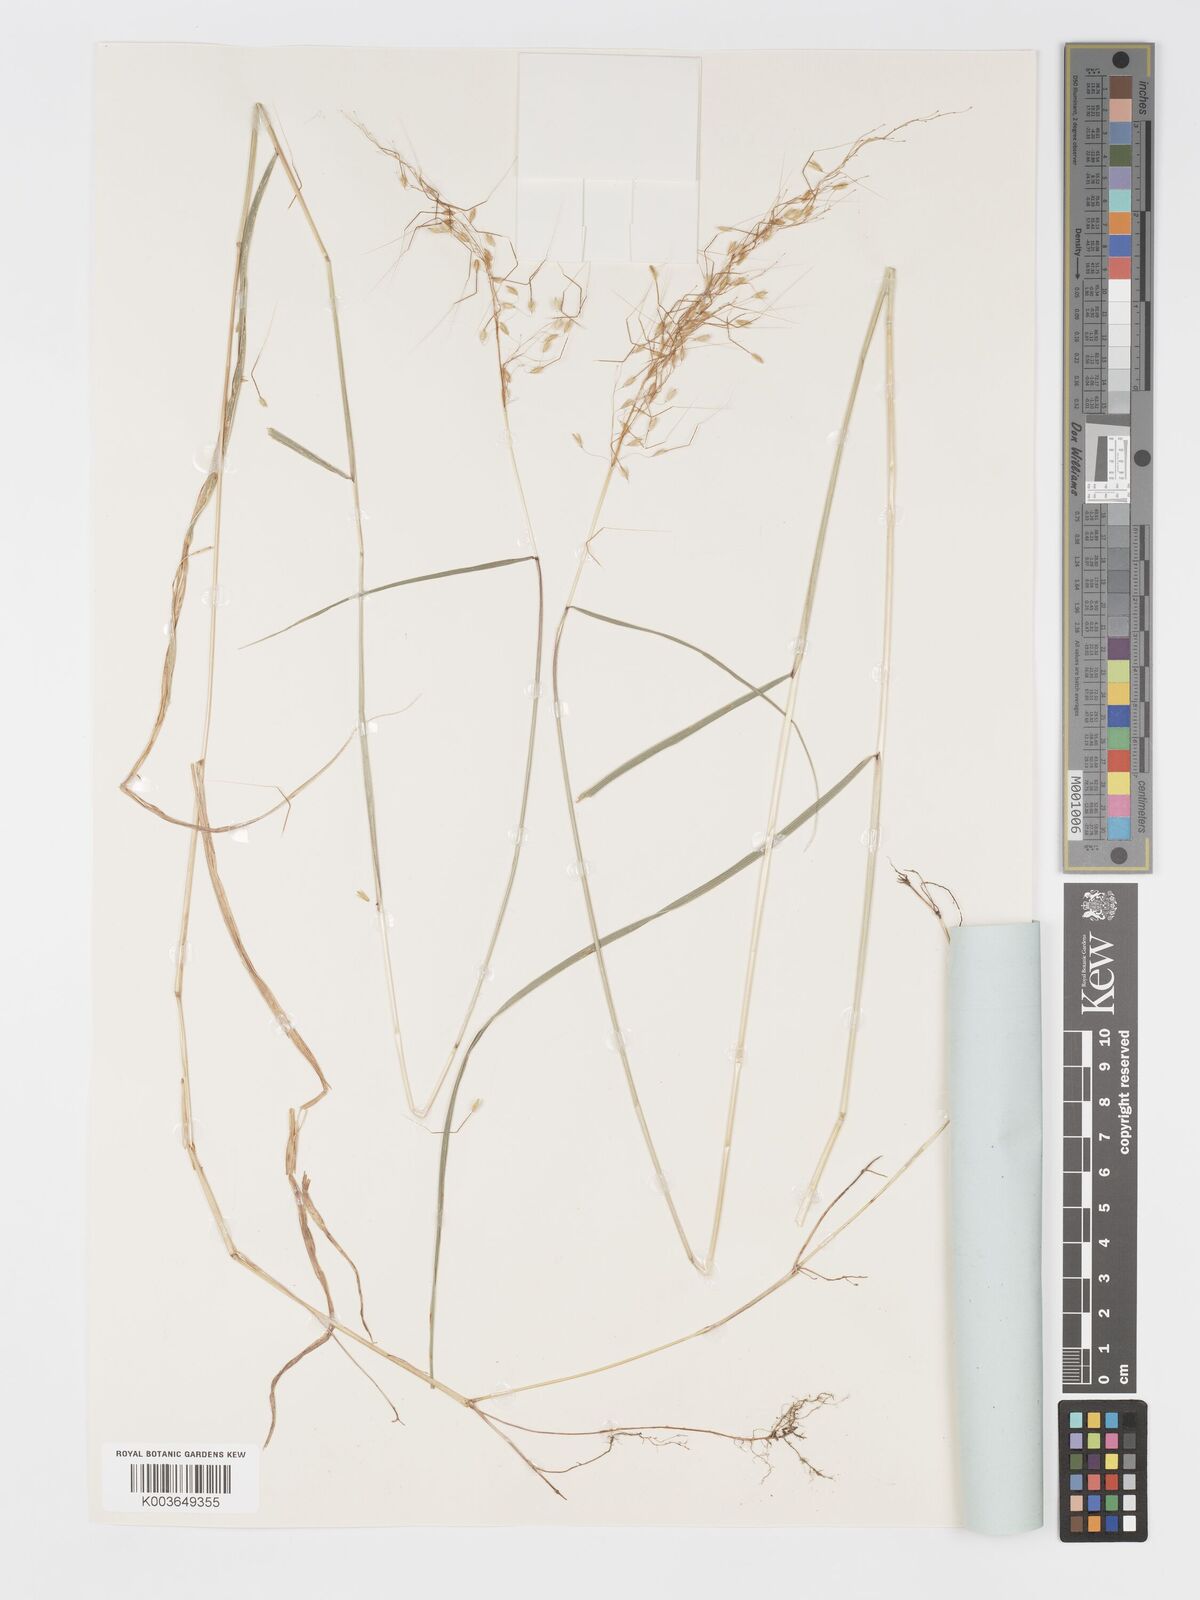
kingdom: Plantae
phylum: Tracheophyta
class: Liliopsida
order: Poales
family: Poaceae
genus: Sorghastrum
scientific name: Sorghastrum incompletum
